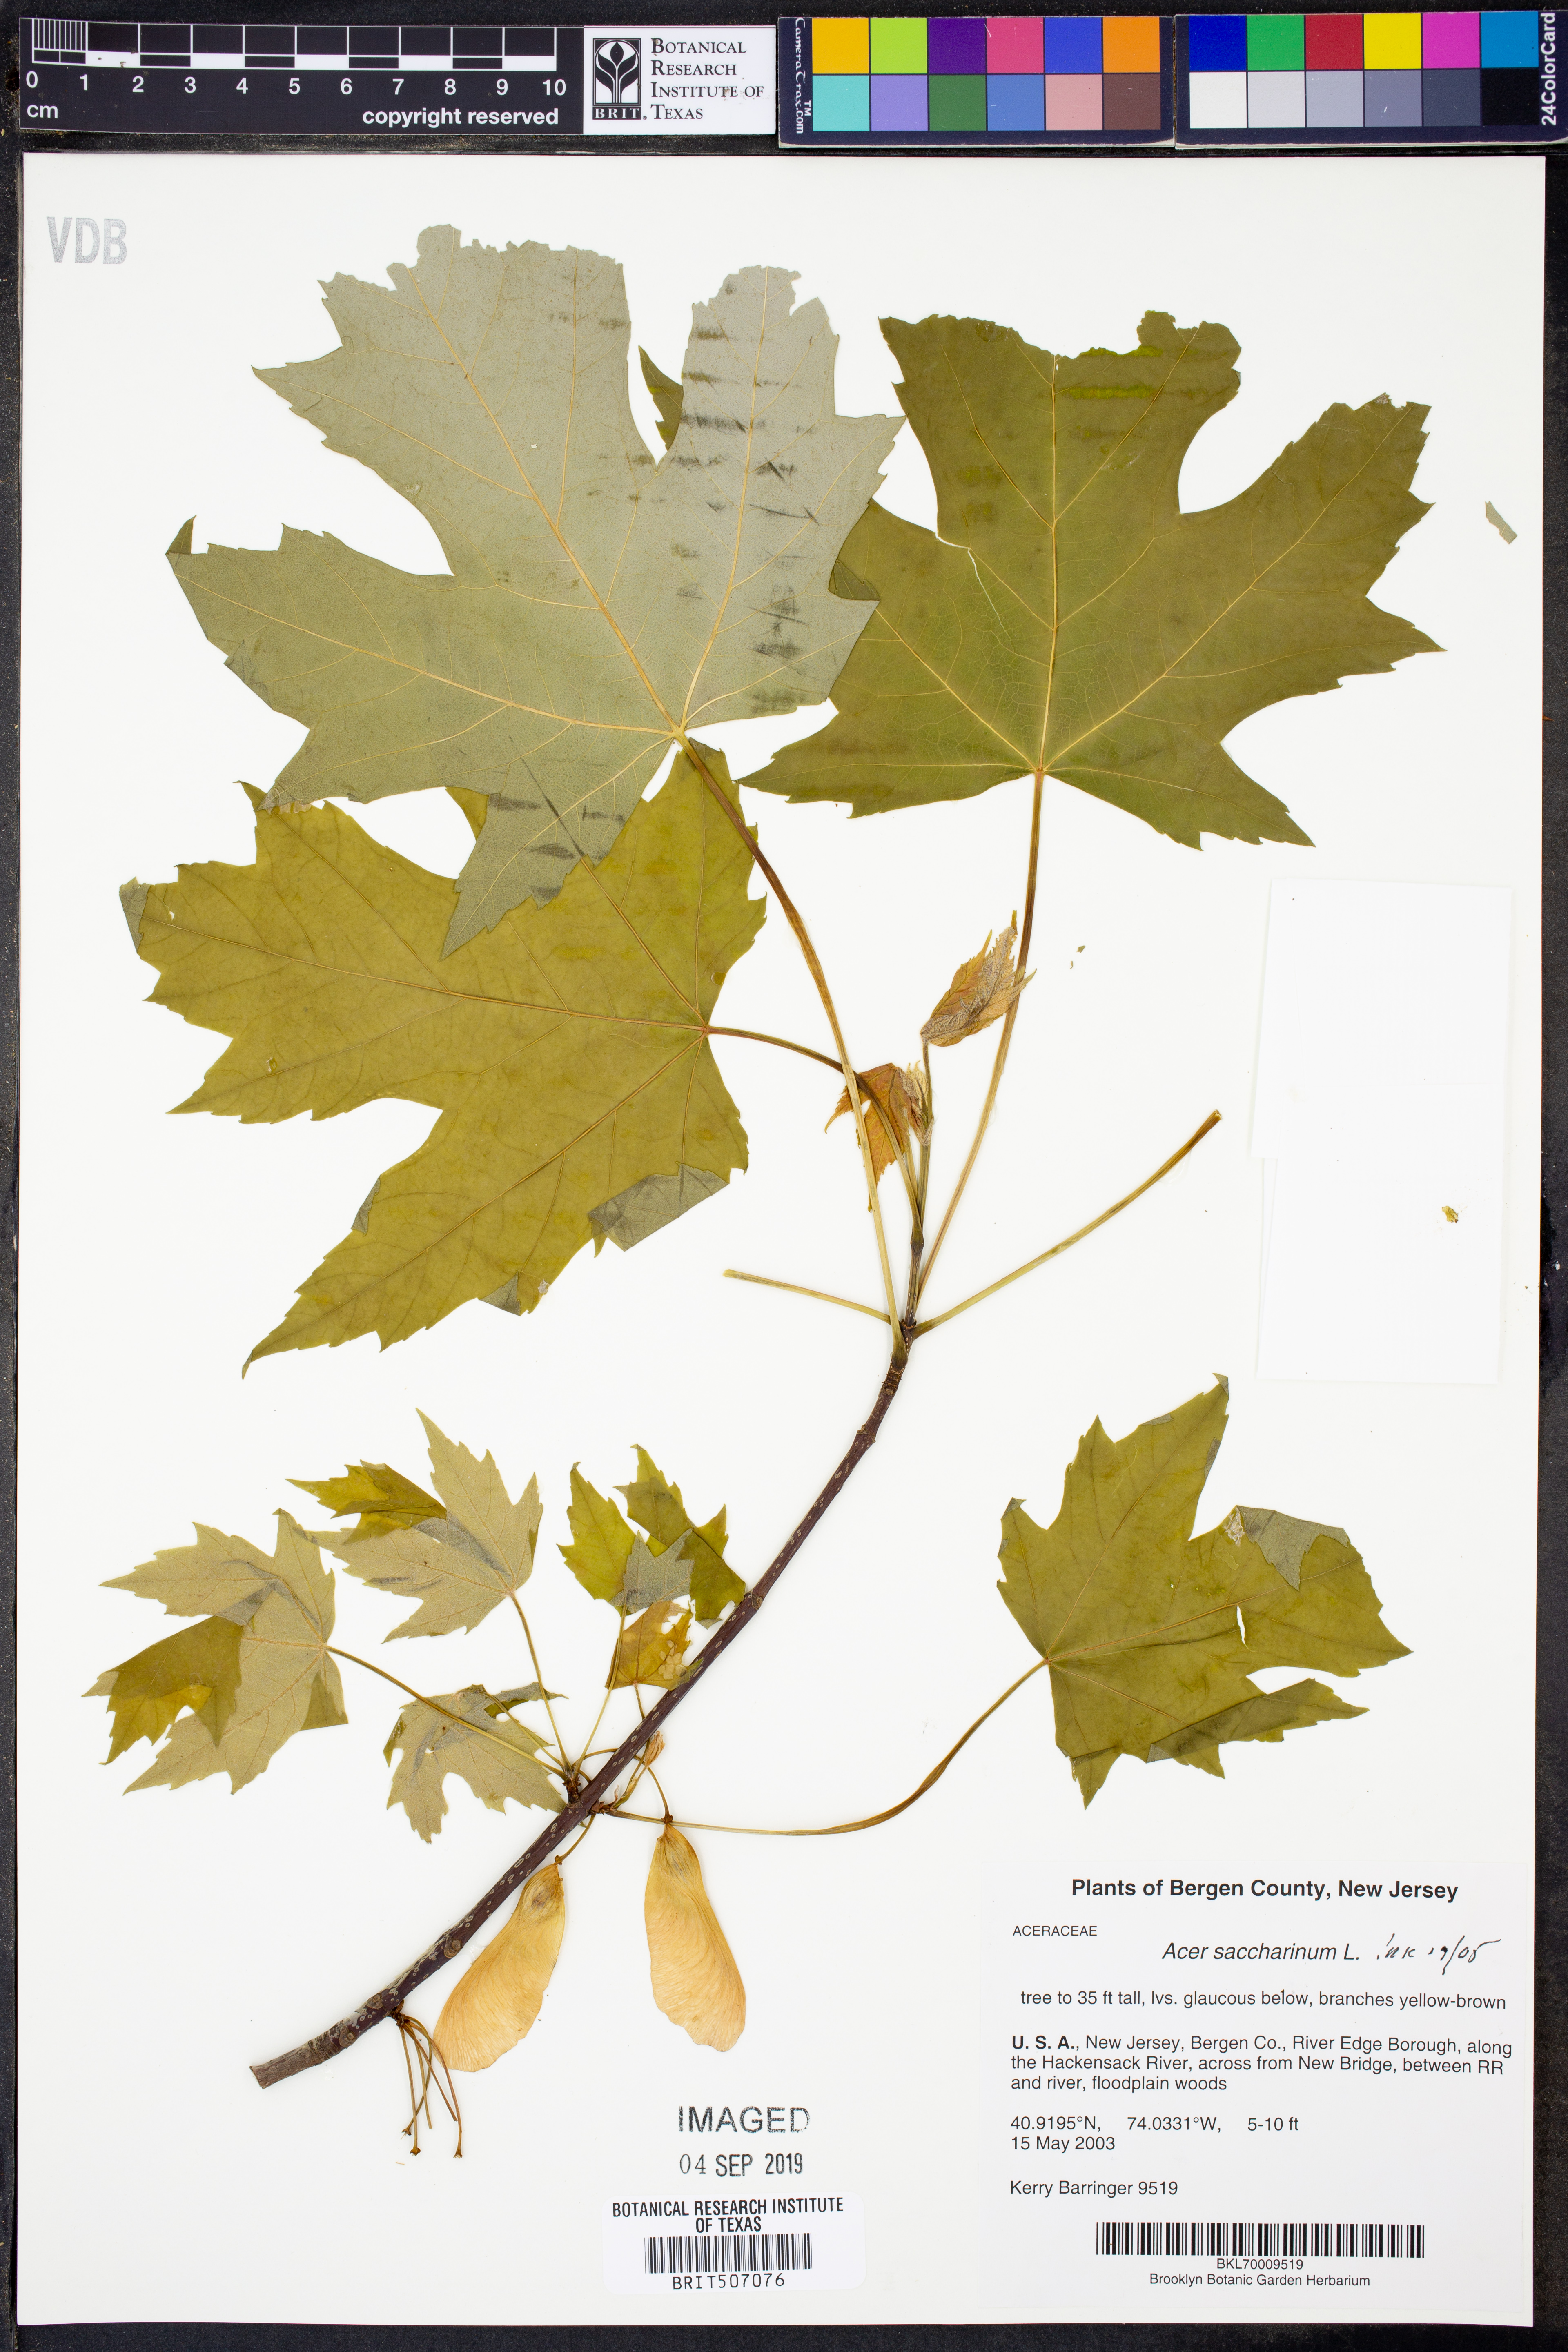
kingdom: Plantae
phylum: Tracheophyta
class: Magnoliopsida
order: Sapindales
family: Sapindaceae
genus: Acer
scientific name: Acer saccharinum
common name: Silver maple
